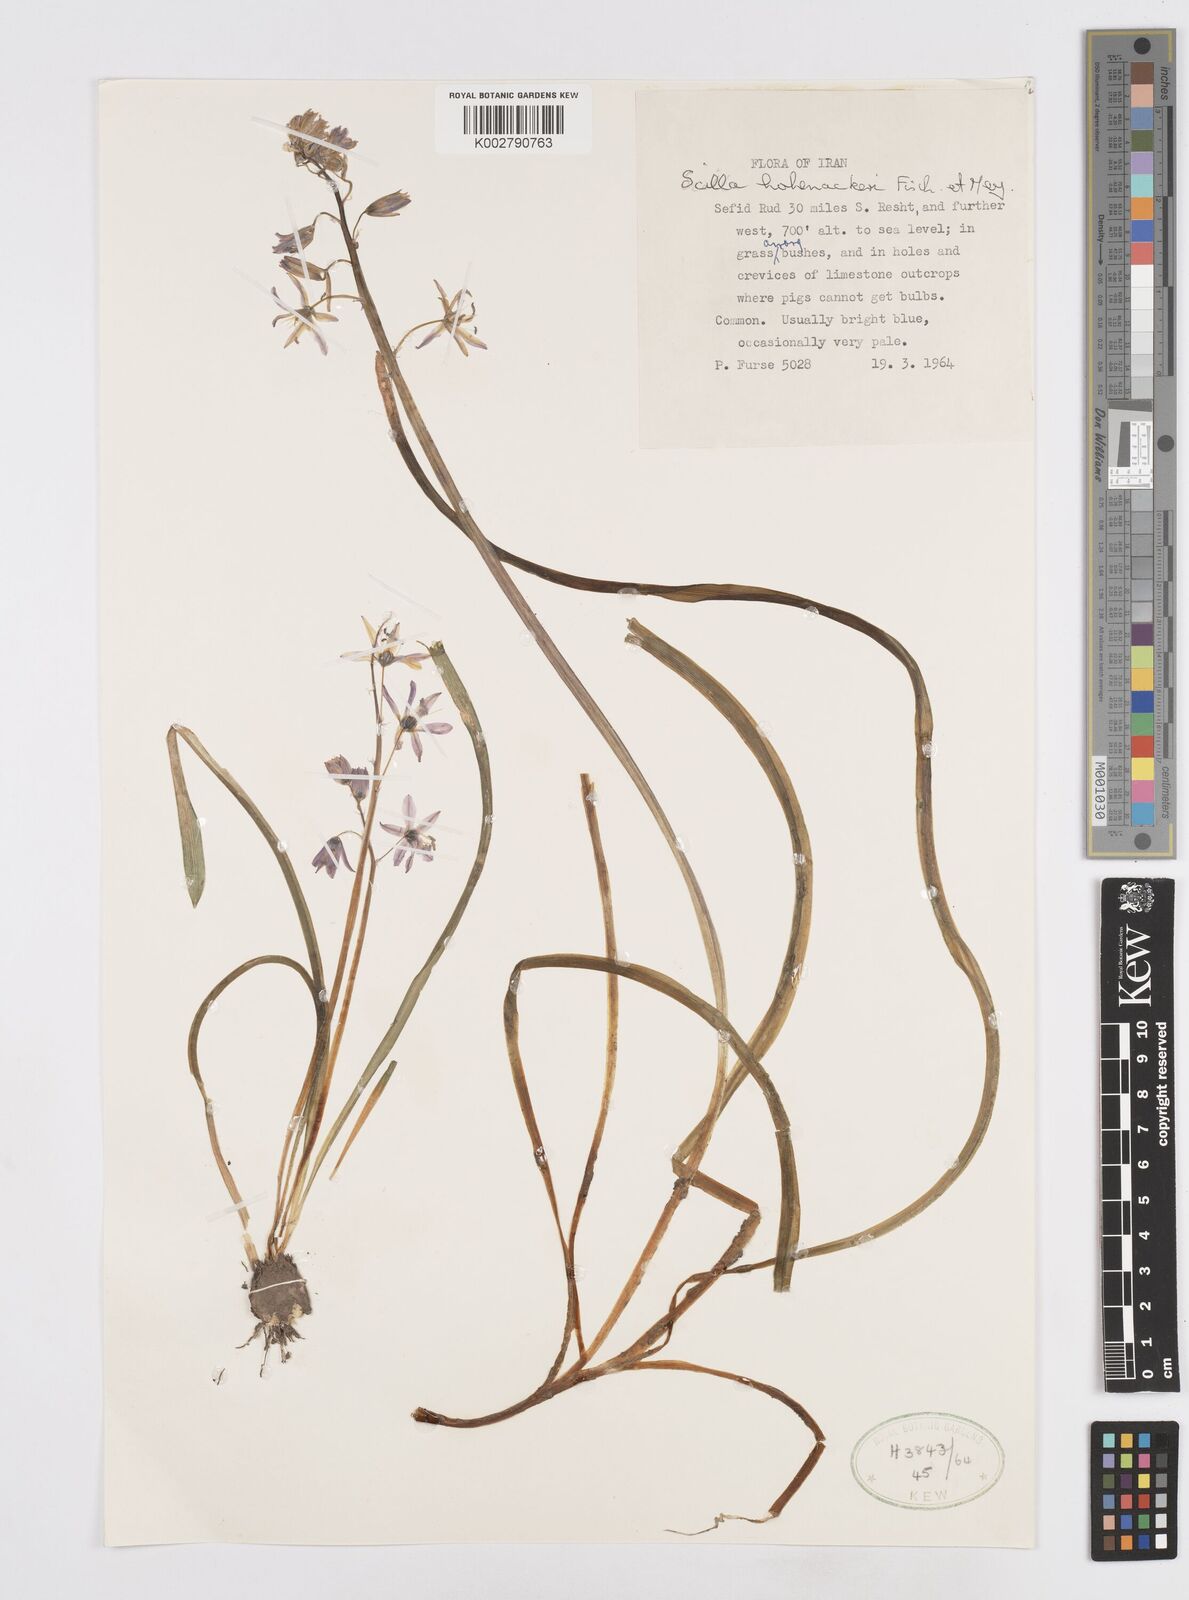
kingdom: Plantae
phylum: Tracheophyta
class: Liliopsida
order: Asparagales
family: Asparagaceae
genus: Fessia
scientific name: Fessia hohenackeri
